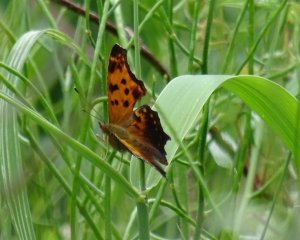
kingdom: Animalia
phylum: Arthropoda
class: Insecta
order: Lepidoptera
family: Nymphalidae
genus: Polygonia
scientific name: Polygonia comma
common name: Eastern Comma
